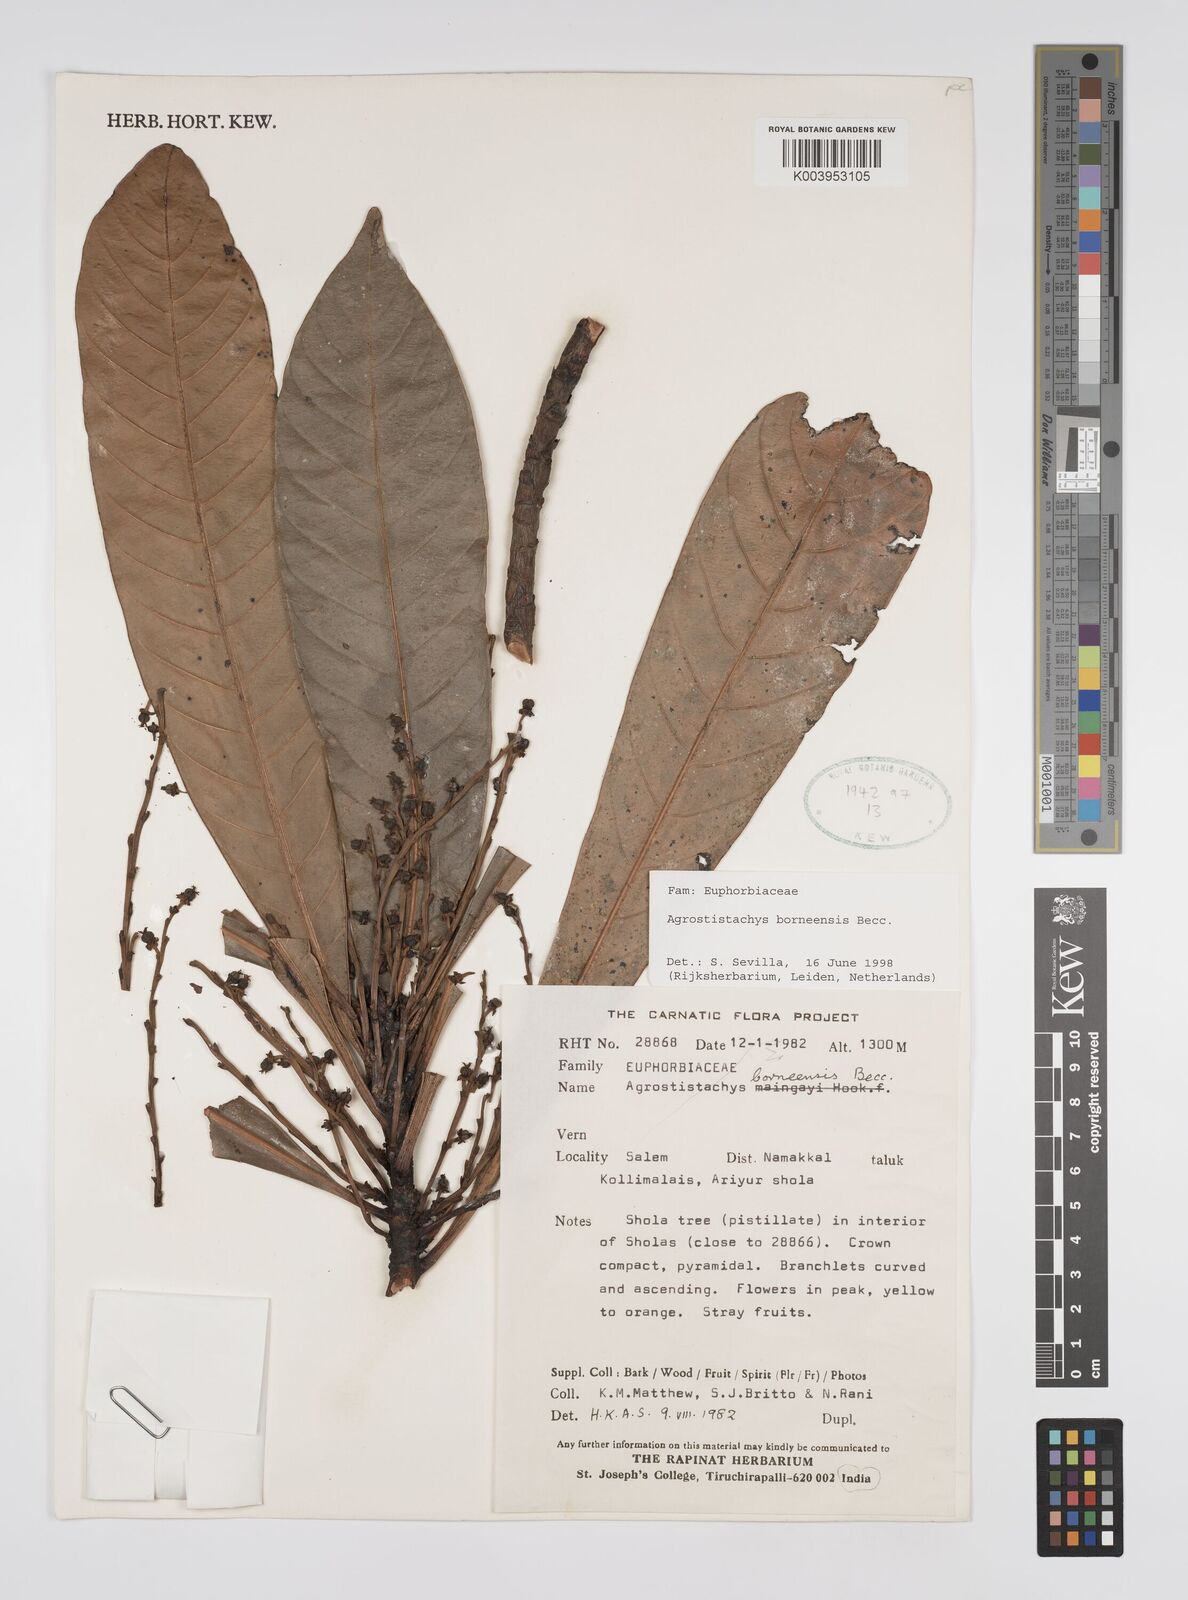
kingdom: Plantae
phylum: Tracheophyta
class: Magnoliopsida
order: Malpighiales
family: Euphorbiaceae
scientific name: Euphorbiaceae
